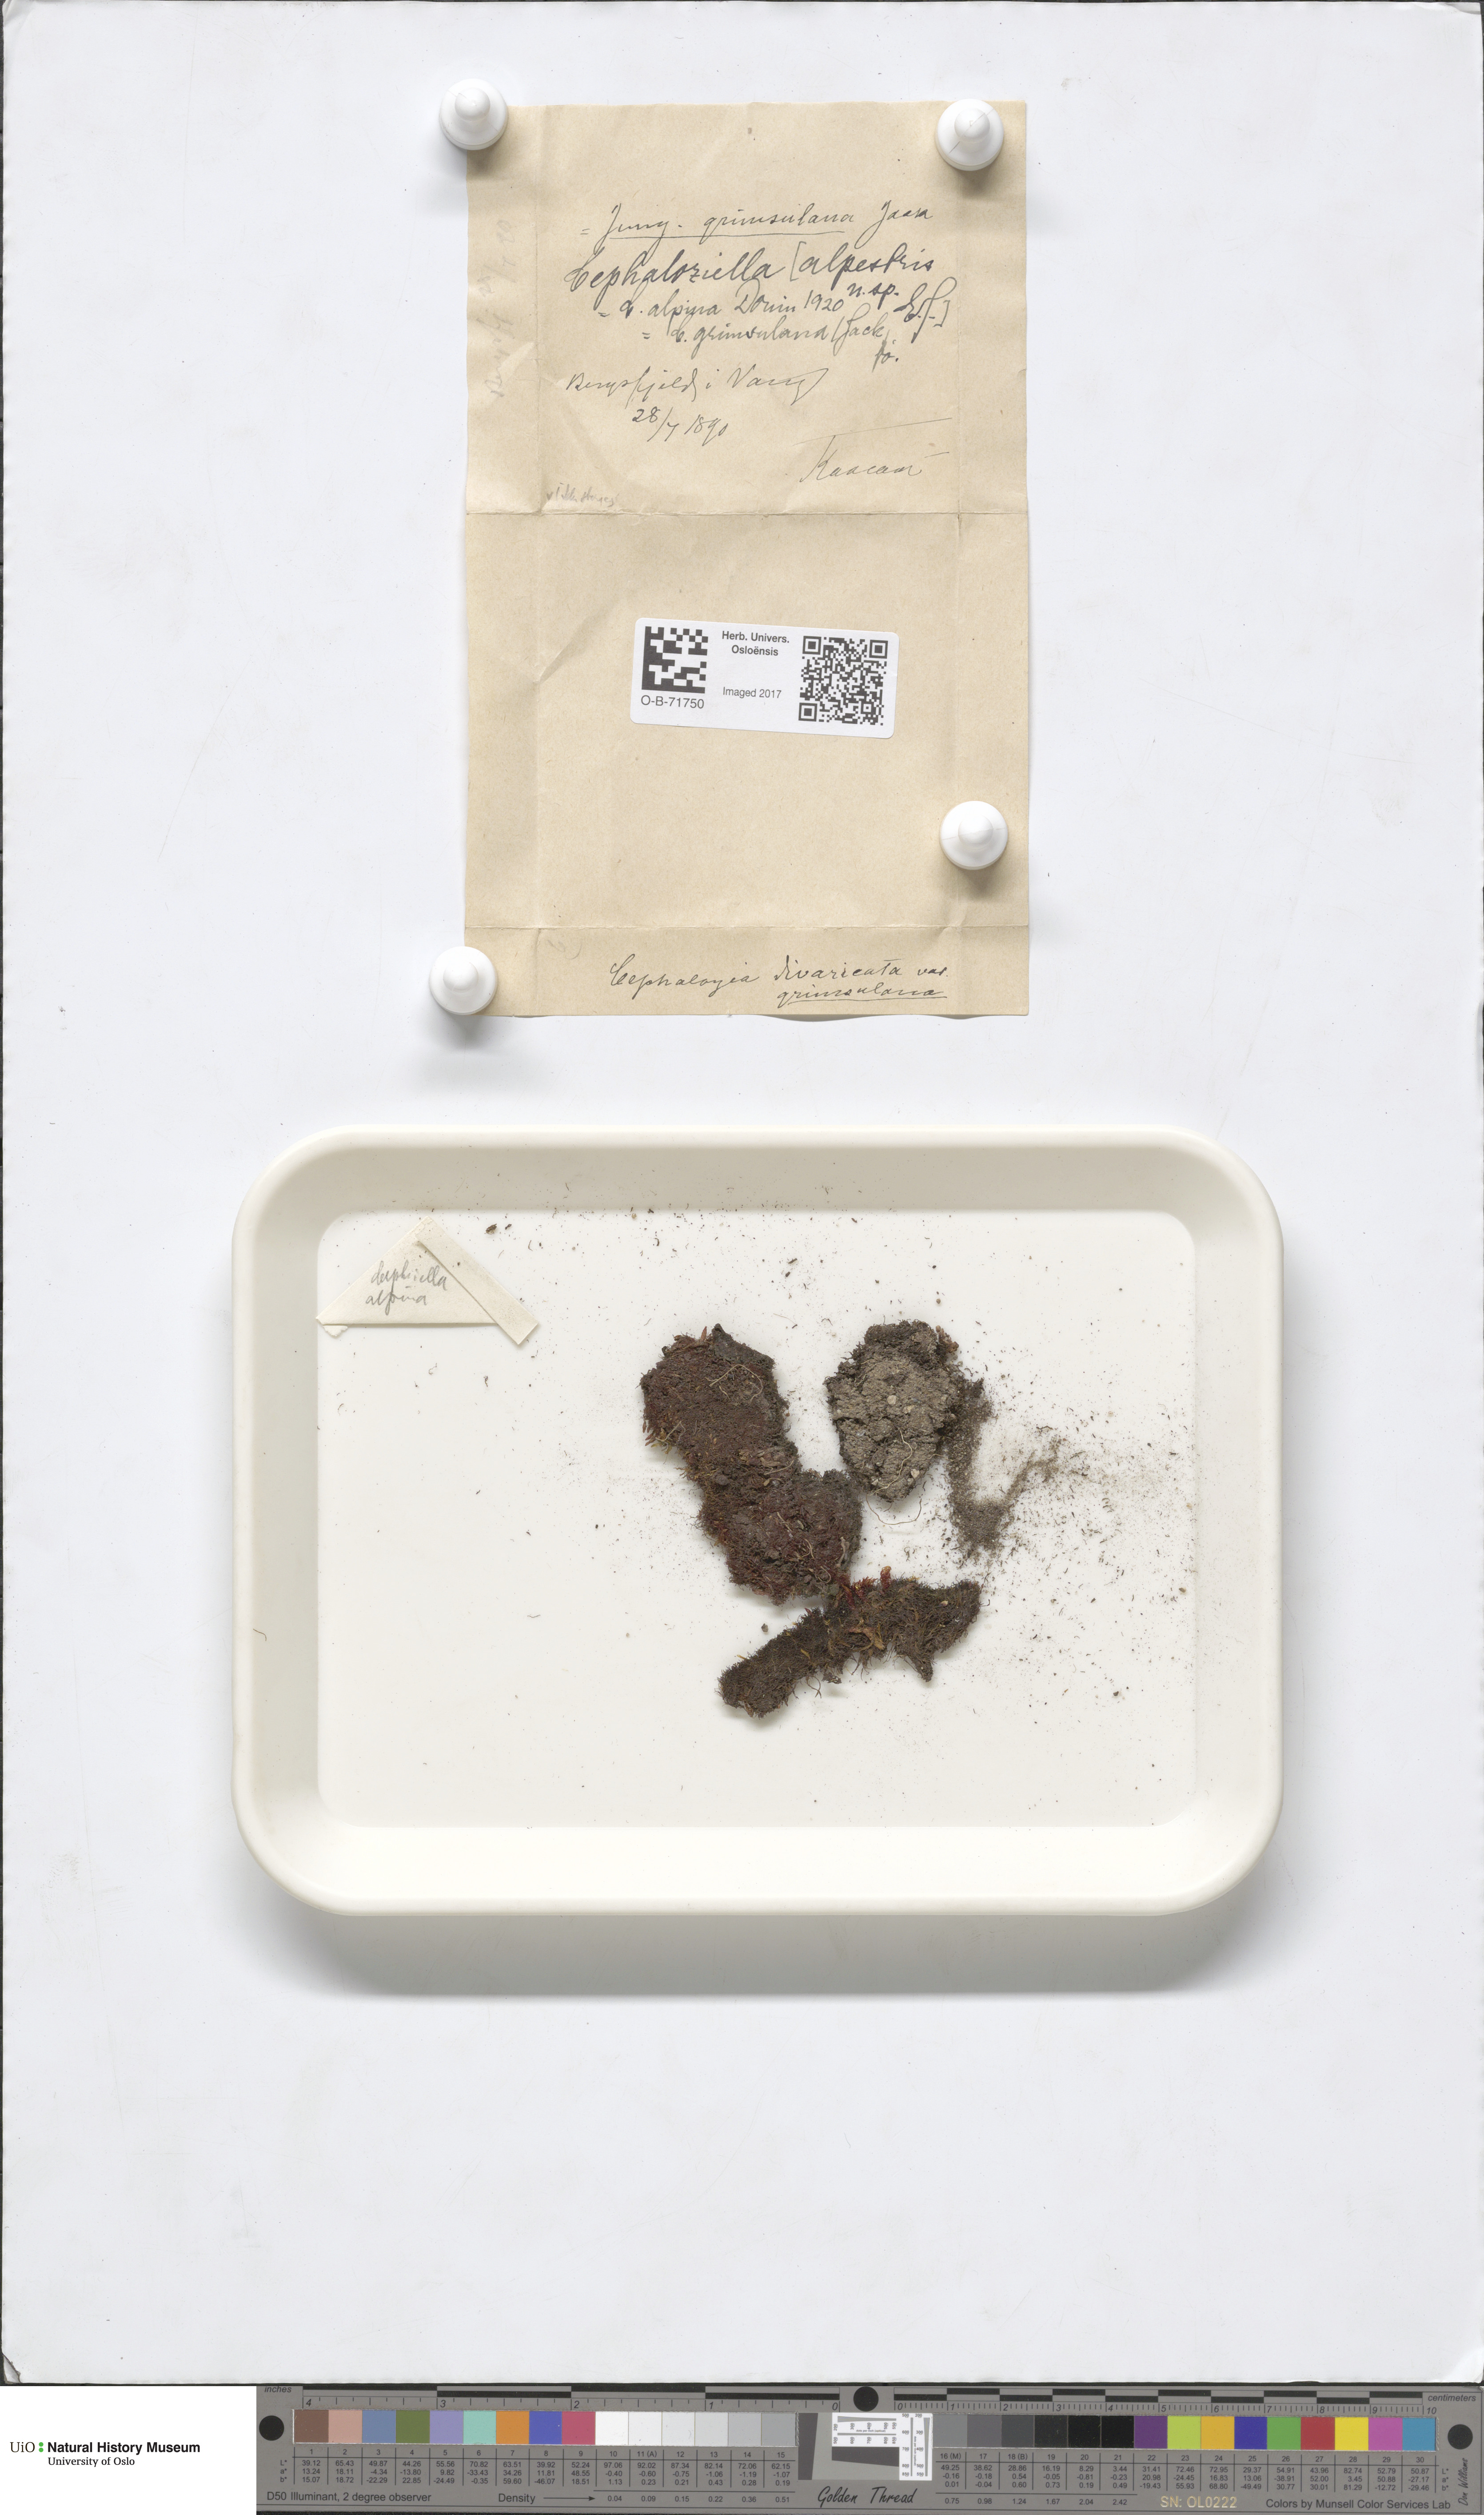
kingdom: Plantae
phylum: Marchantiophyta
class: Jungermanniopsida
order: Jungermanniales
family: Cephaloziellaceae
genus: Cephaloziella
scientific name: Cephaloziella varians
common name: Arctic threadwort
